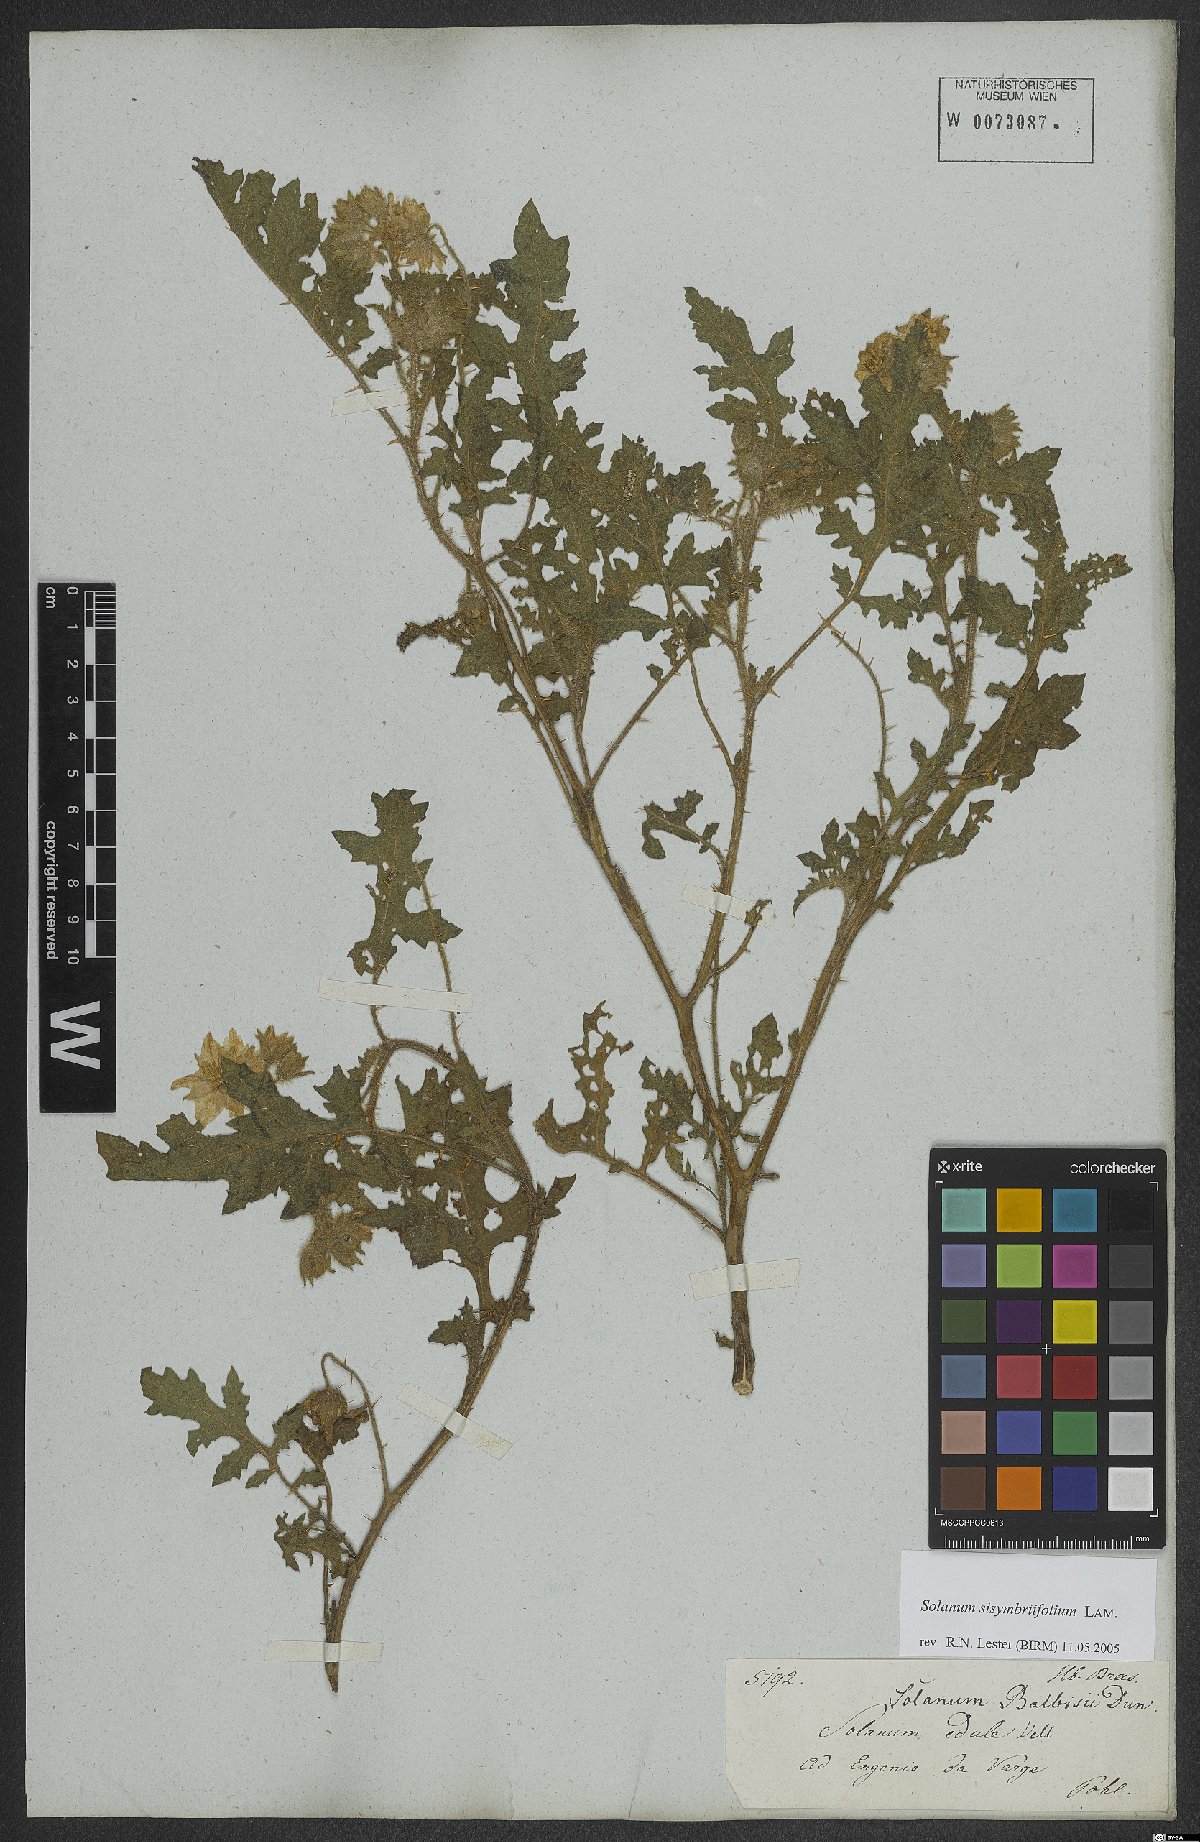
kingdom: Plantae
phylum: Tracheophyta
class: Magnoliopsida
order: Solanales
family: Solanaceae
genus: Solanum
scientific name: Solanum sisymbriifolium
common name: Red buffalo-bur
